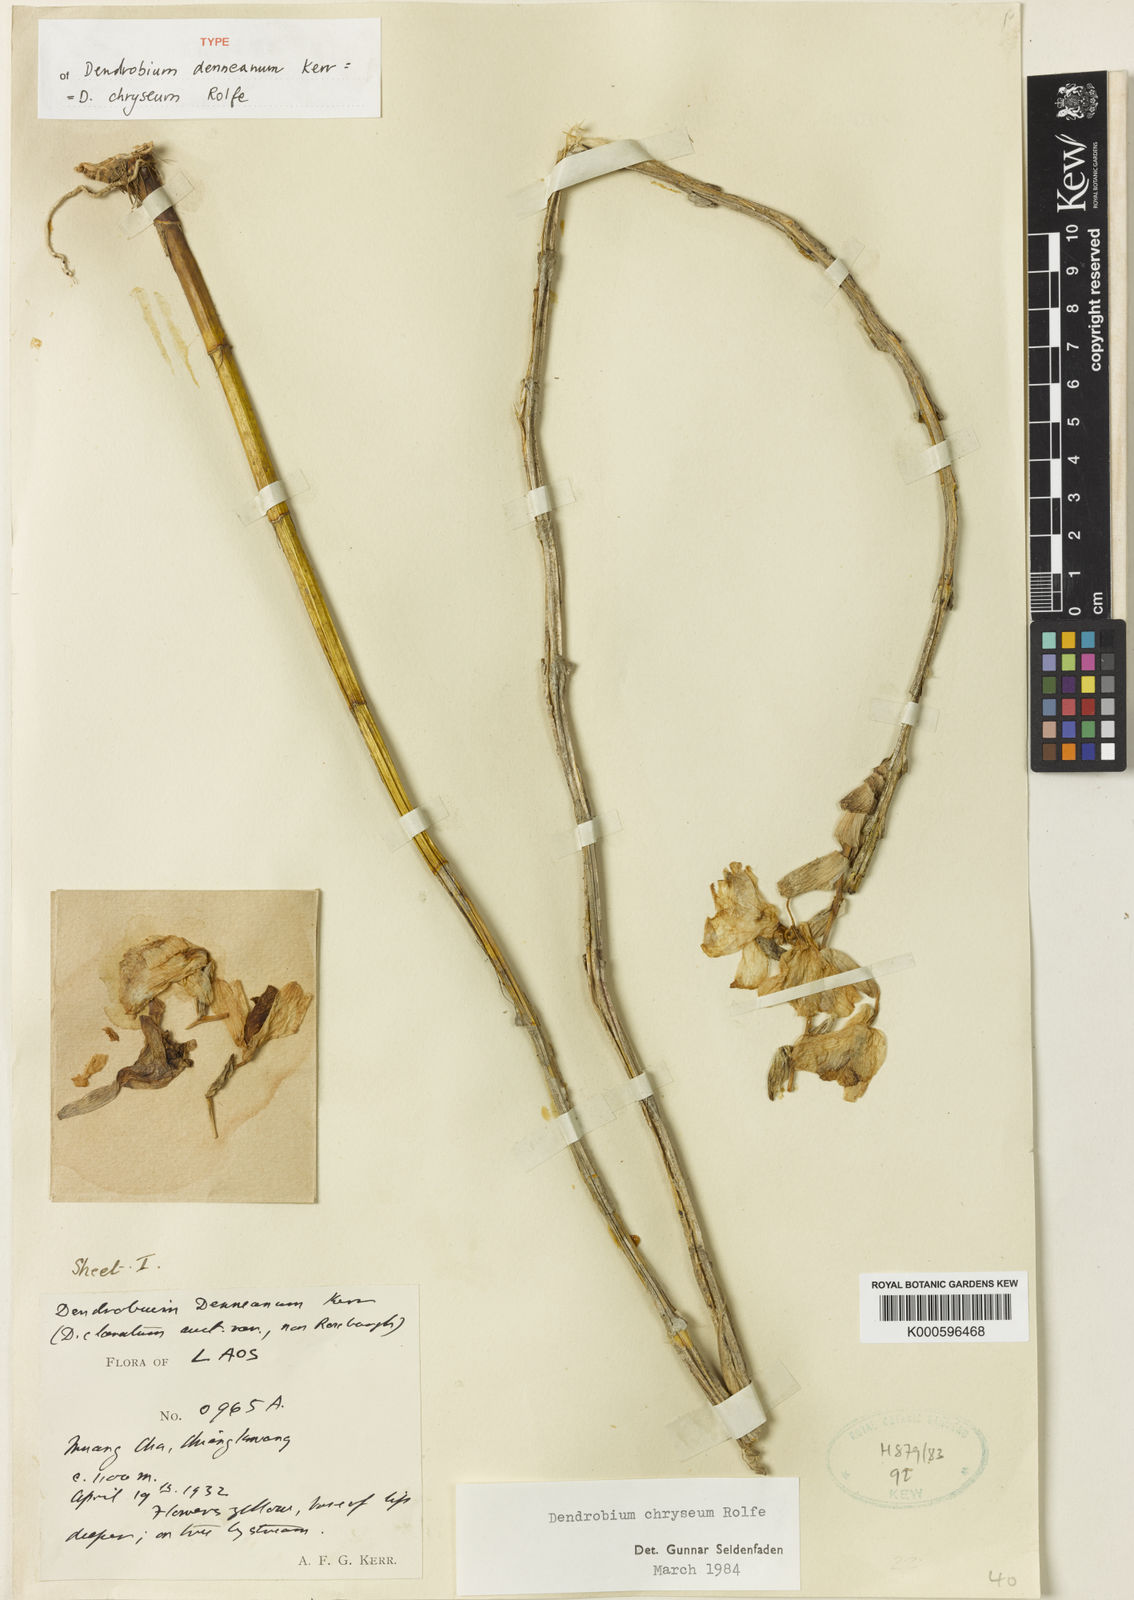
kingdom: Plantae
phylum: Tracheophyta
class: Liliopsida
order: Asparagales
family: Orchidaceae
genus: Dendrobium
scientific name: Dendrobium chryseum
